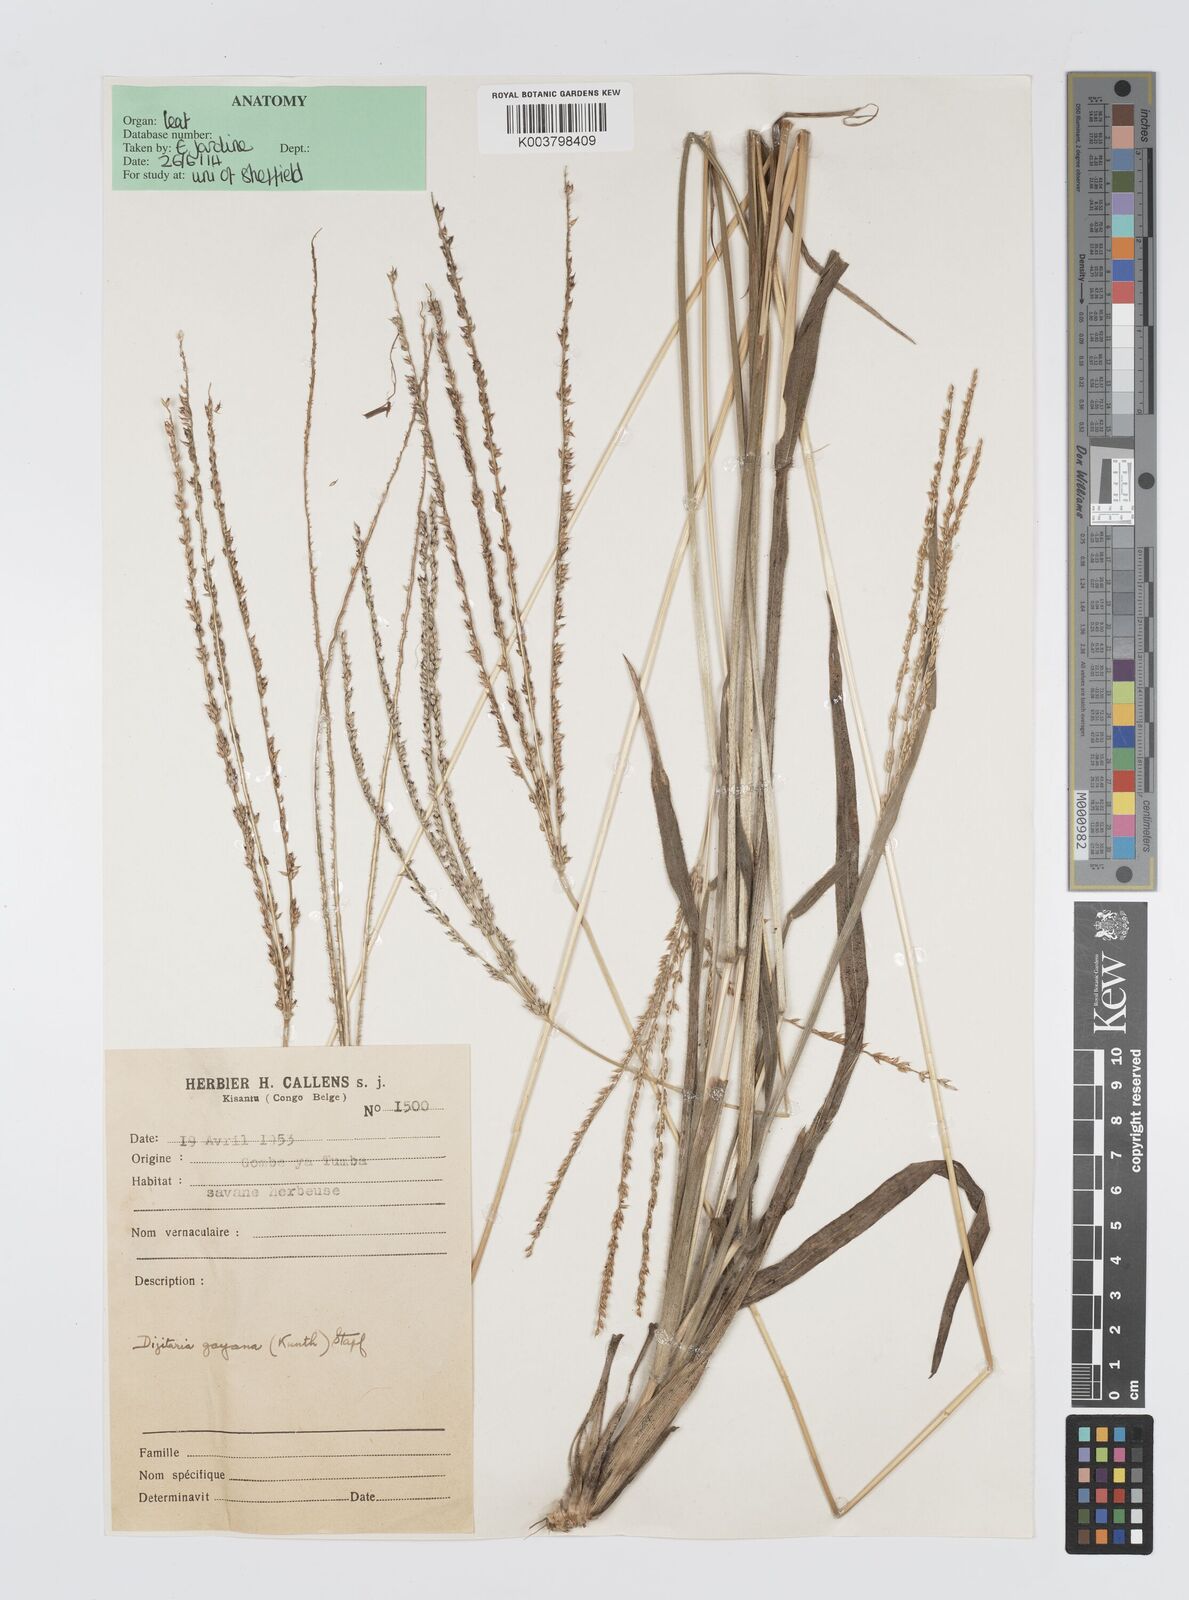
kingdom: Plantae
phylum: Tracheophyta
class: Liliopsida
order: Poales
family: Poaceae
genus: Digitaria
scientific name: Digitaria gayana
